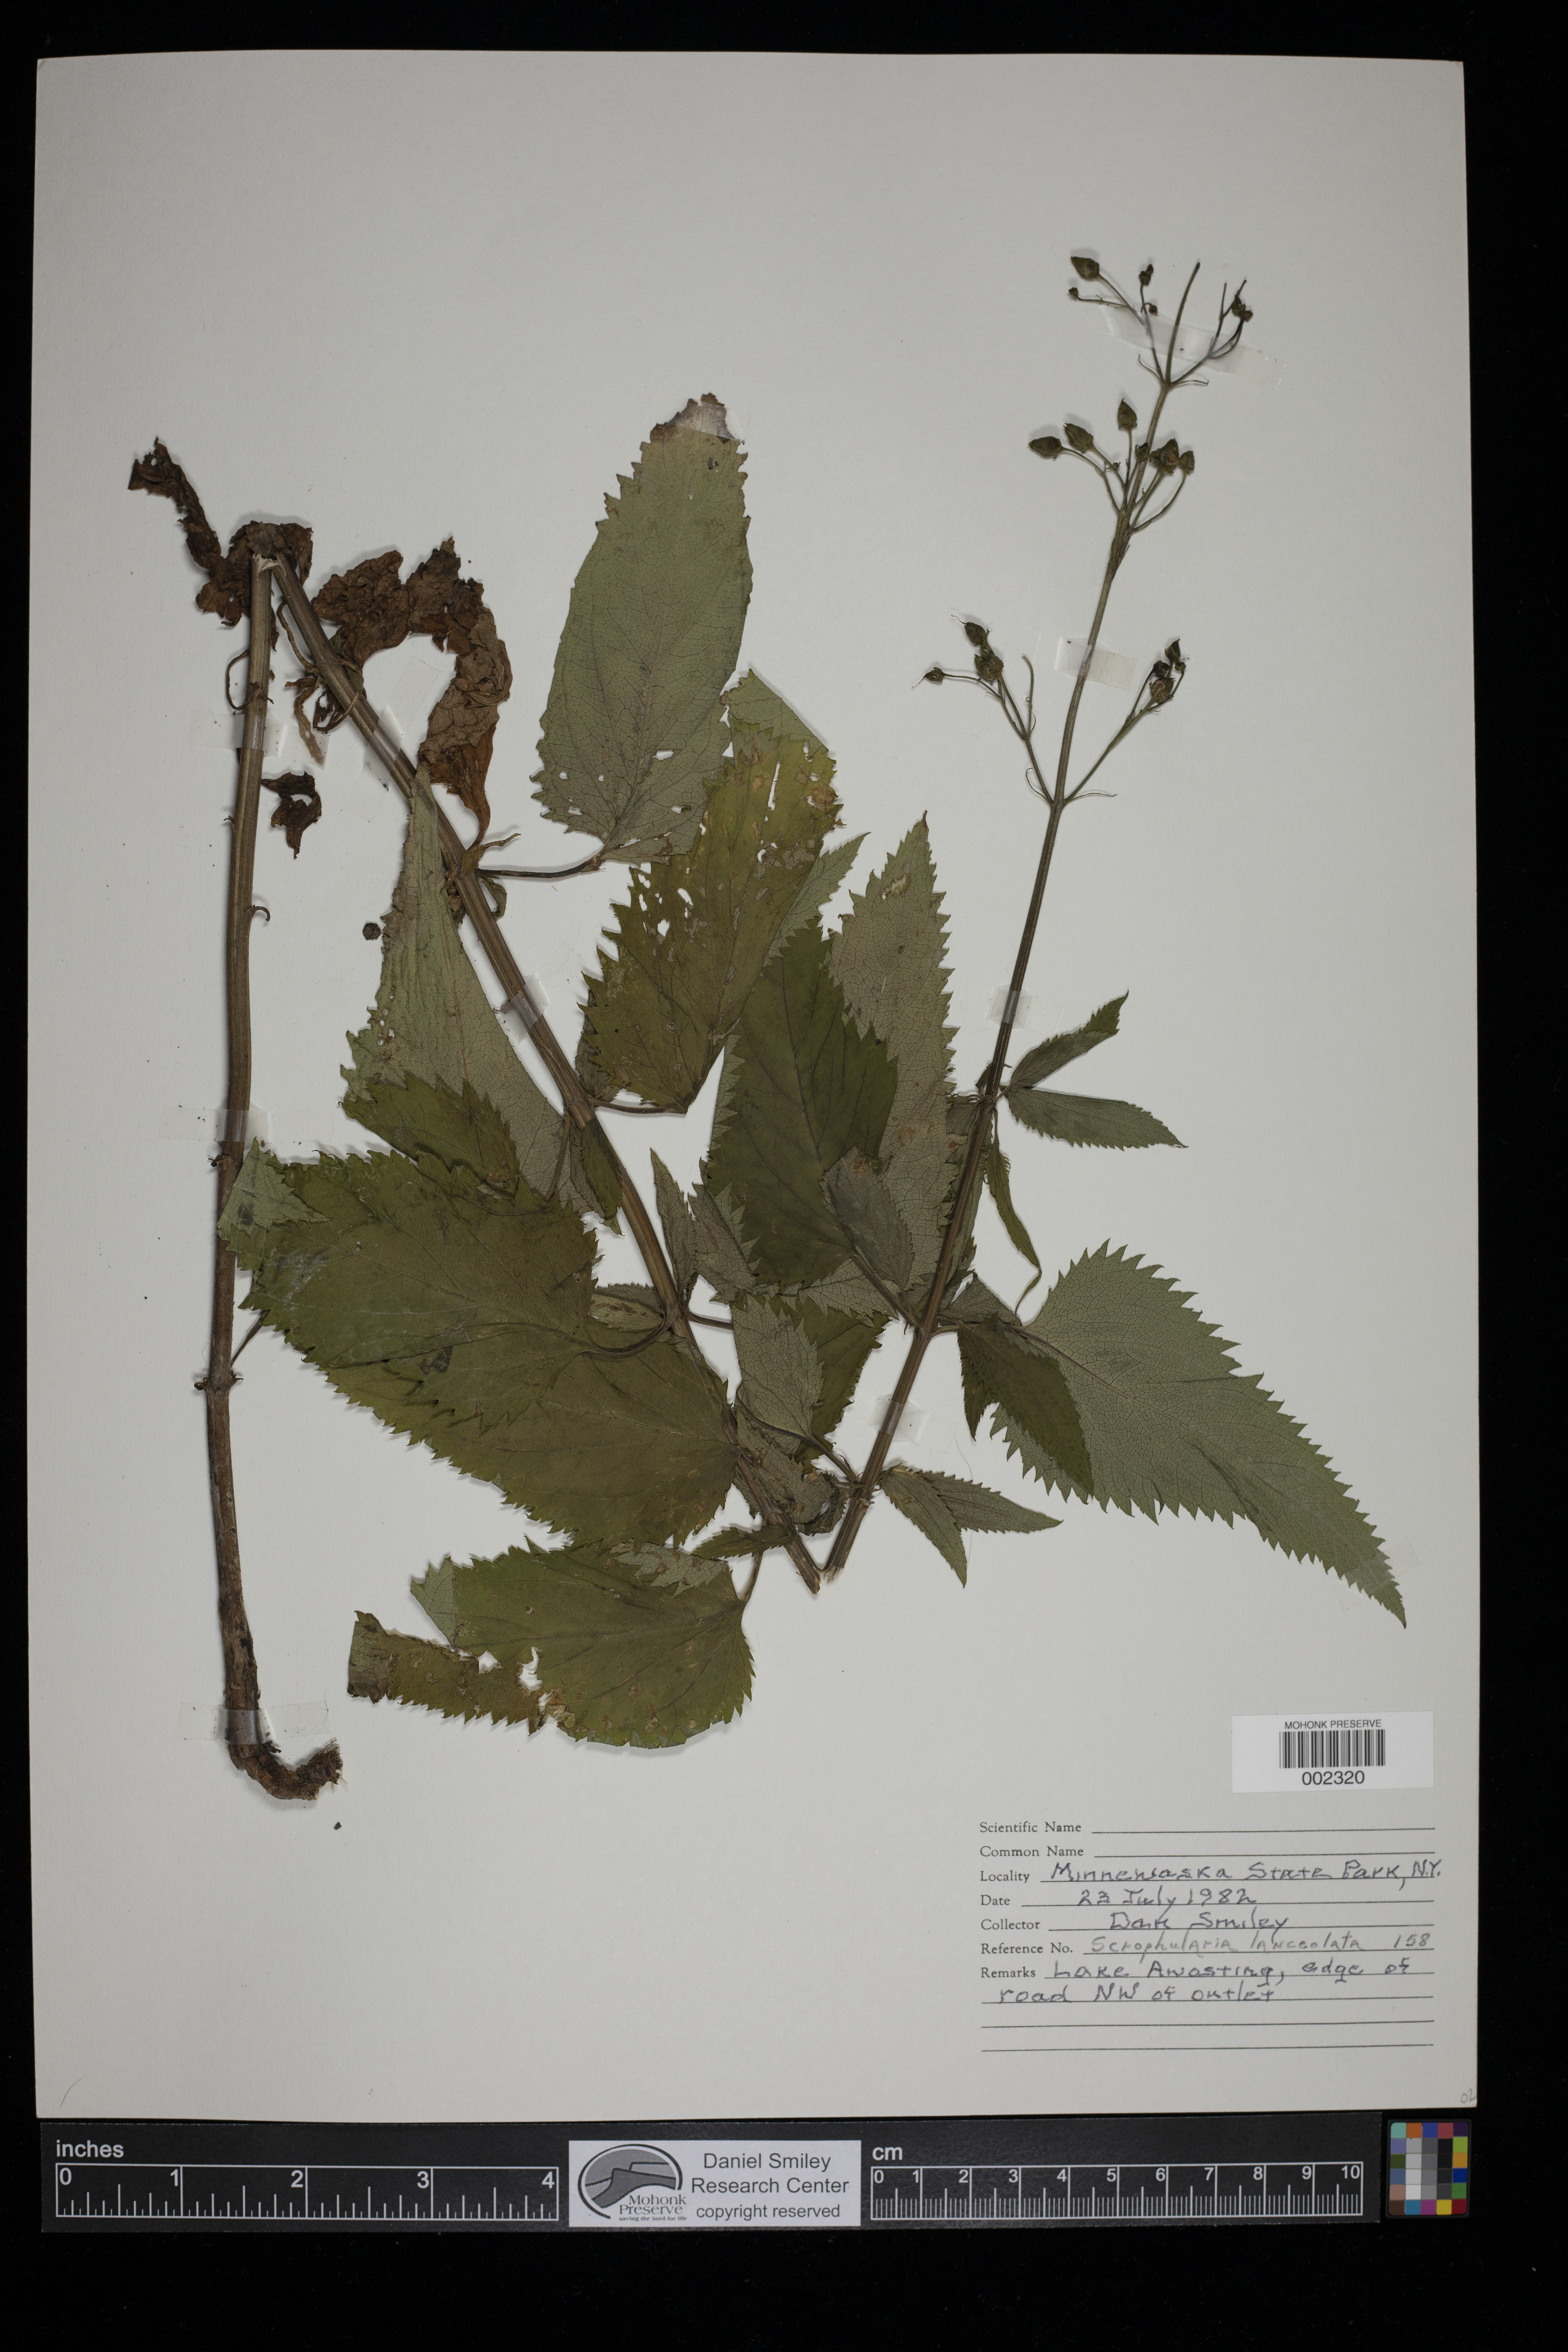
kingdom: Plantae
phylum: Tracheophyta
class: Magnoliopsida
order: Lamiales
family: Scrophulariaceae
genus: Scrophularia
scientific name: Scrophularia lanceolata
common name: American figwort
